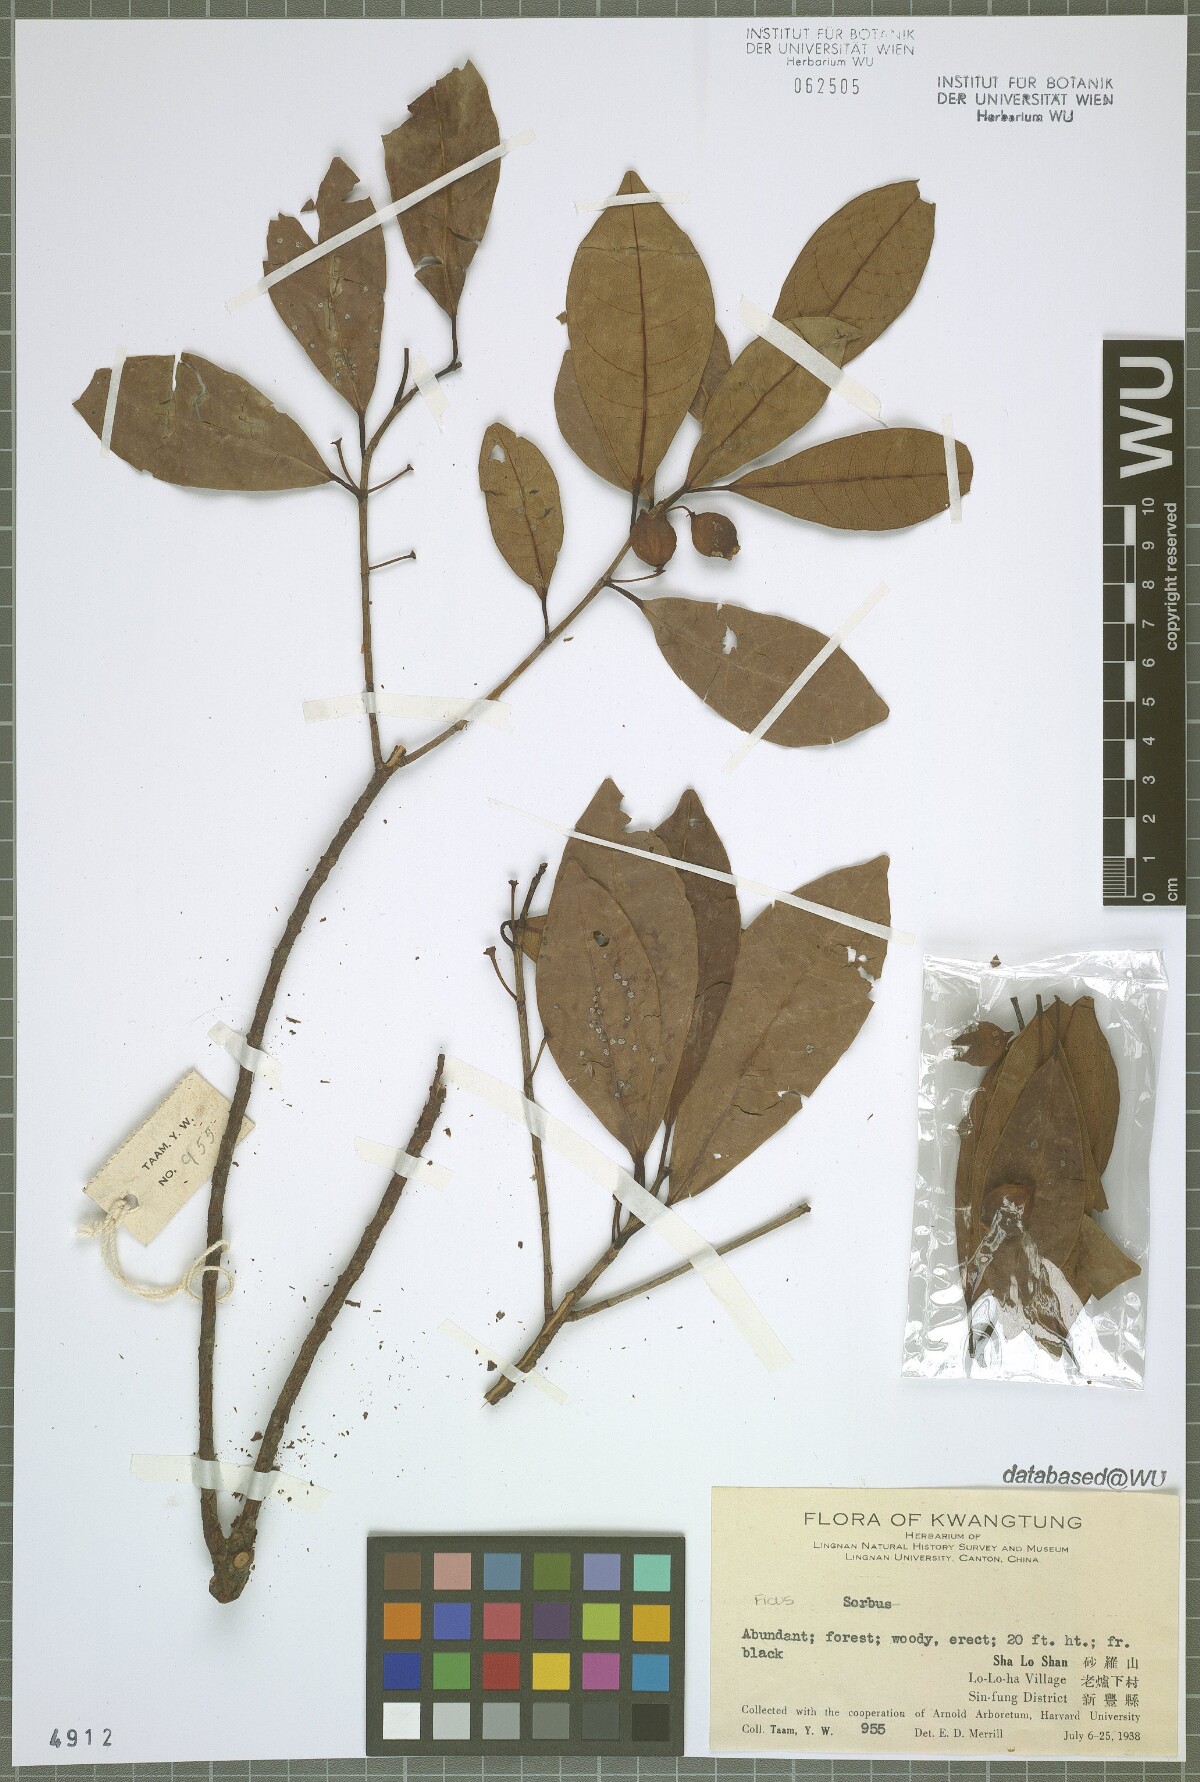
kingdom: Plantae
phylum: Tracheophyta
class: Magnoliopsida
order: Rosales
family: Moraceae
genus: Ficus
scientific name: Ficus
